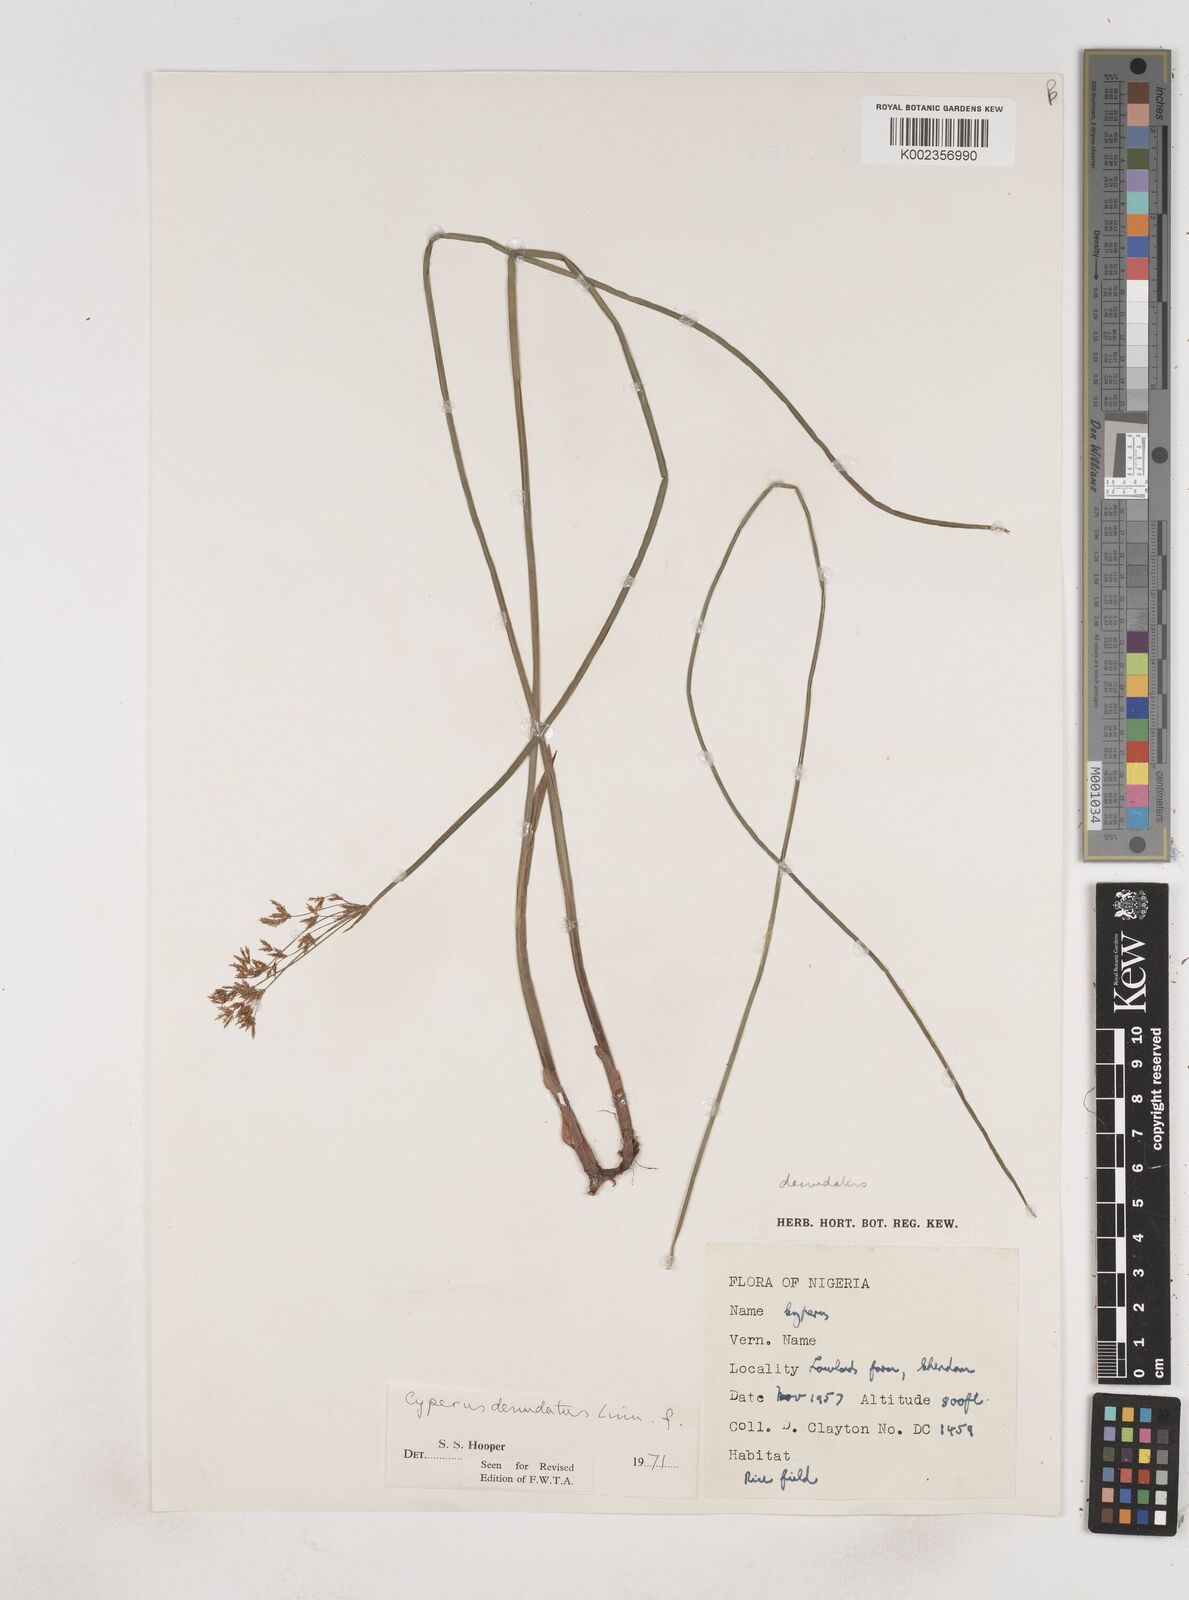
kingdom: Plantae
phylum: Tracheophyta
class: Liliopsida
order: Poales
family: Cyperaceae
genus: Cyperus
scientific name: Cyperus denudatus
